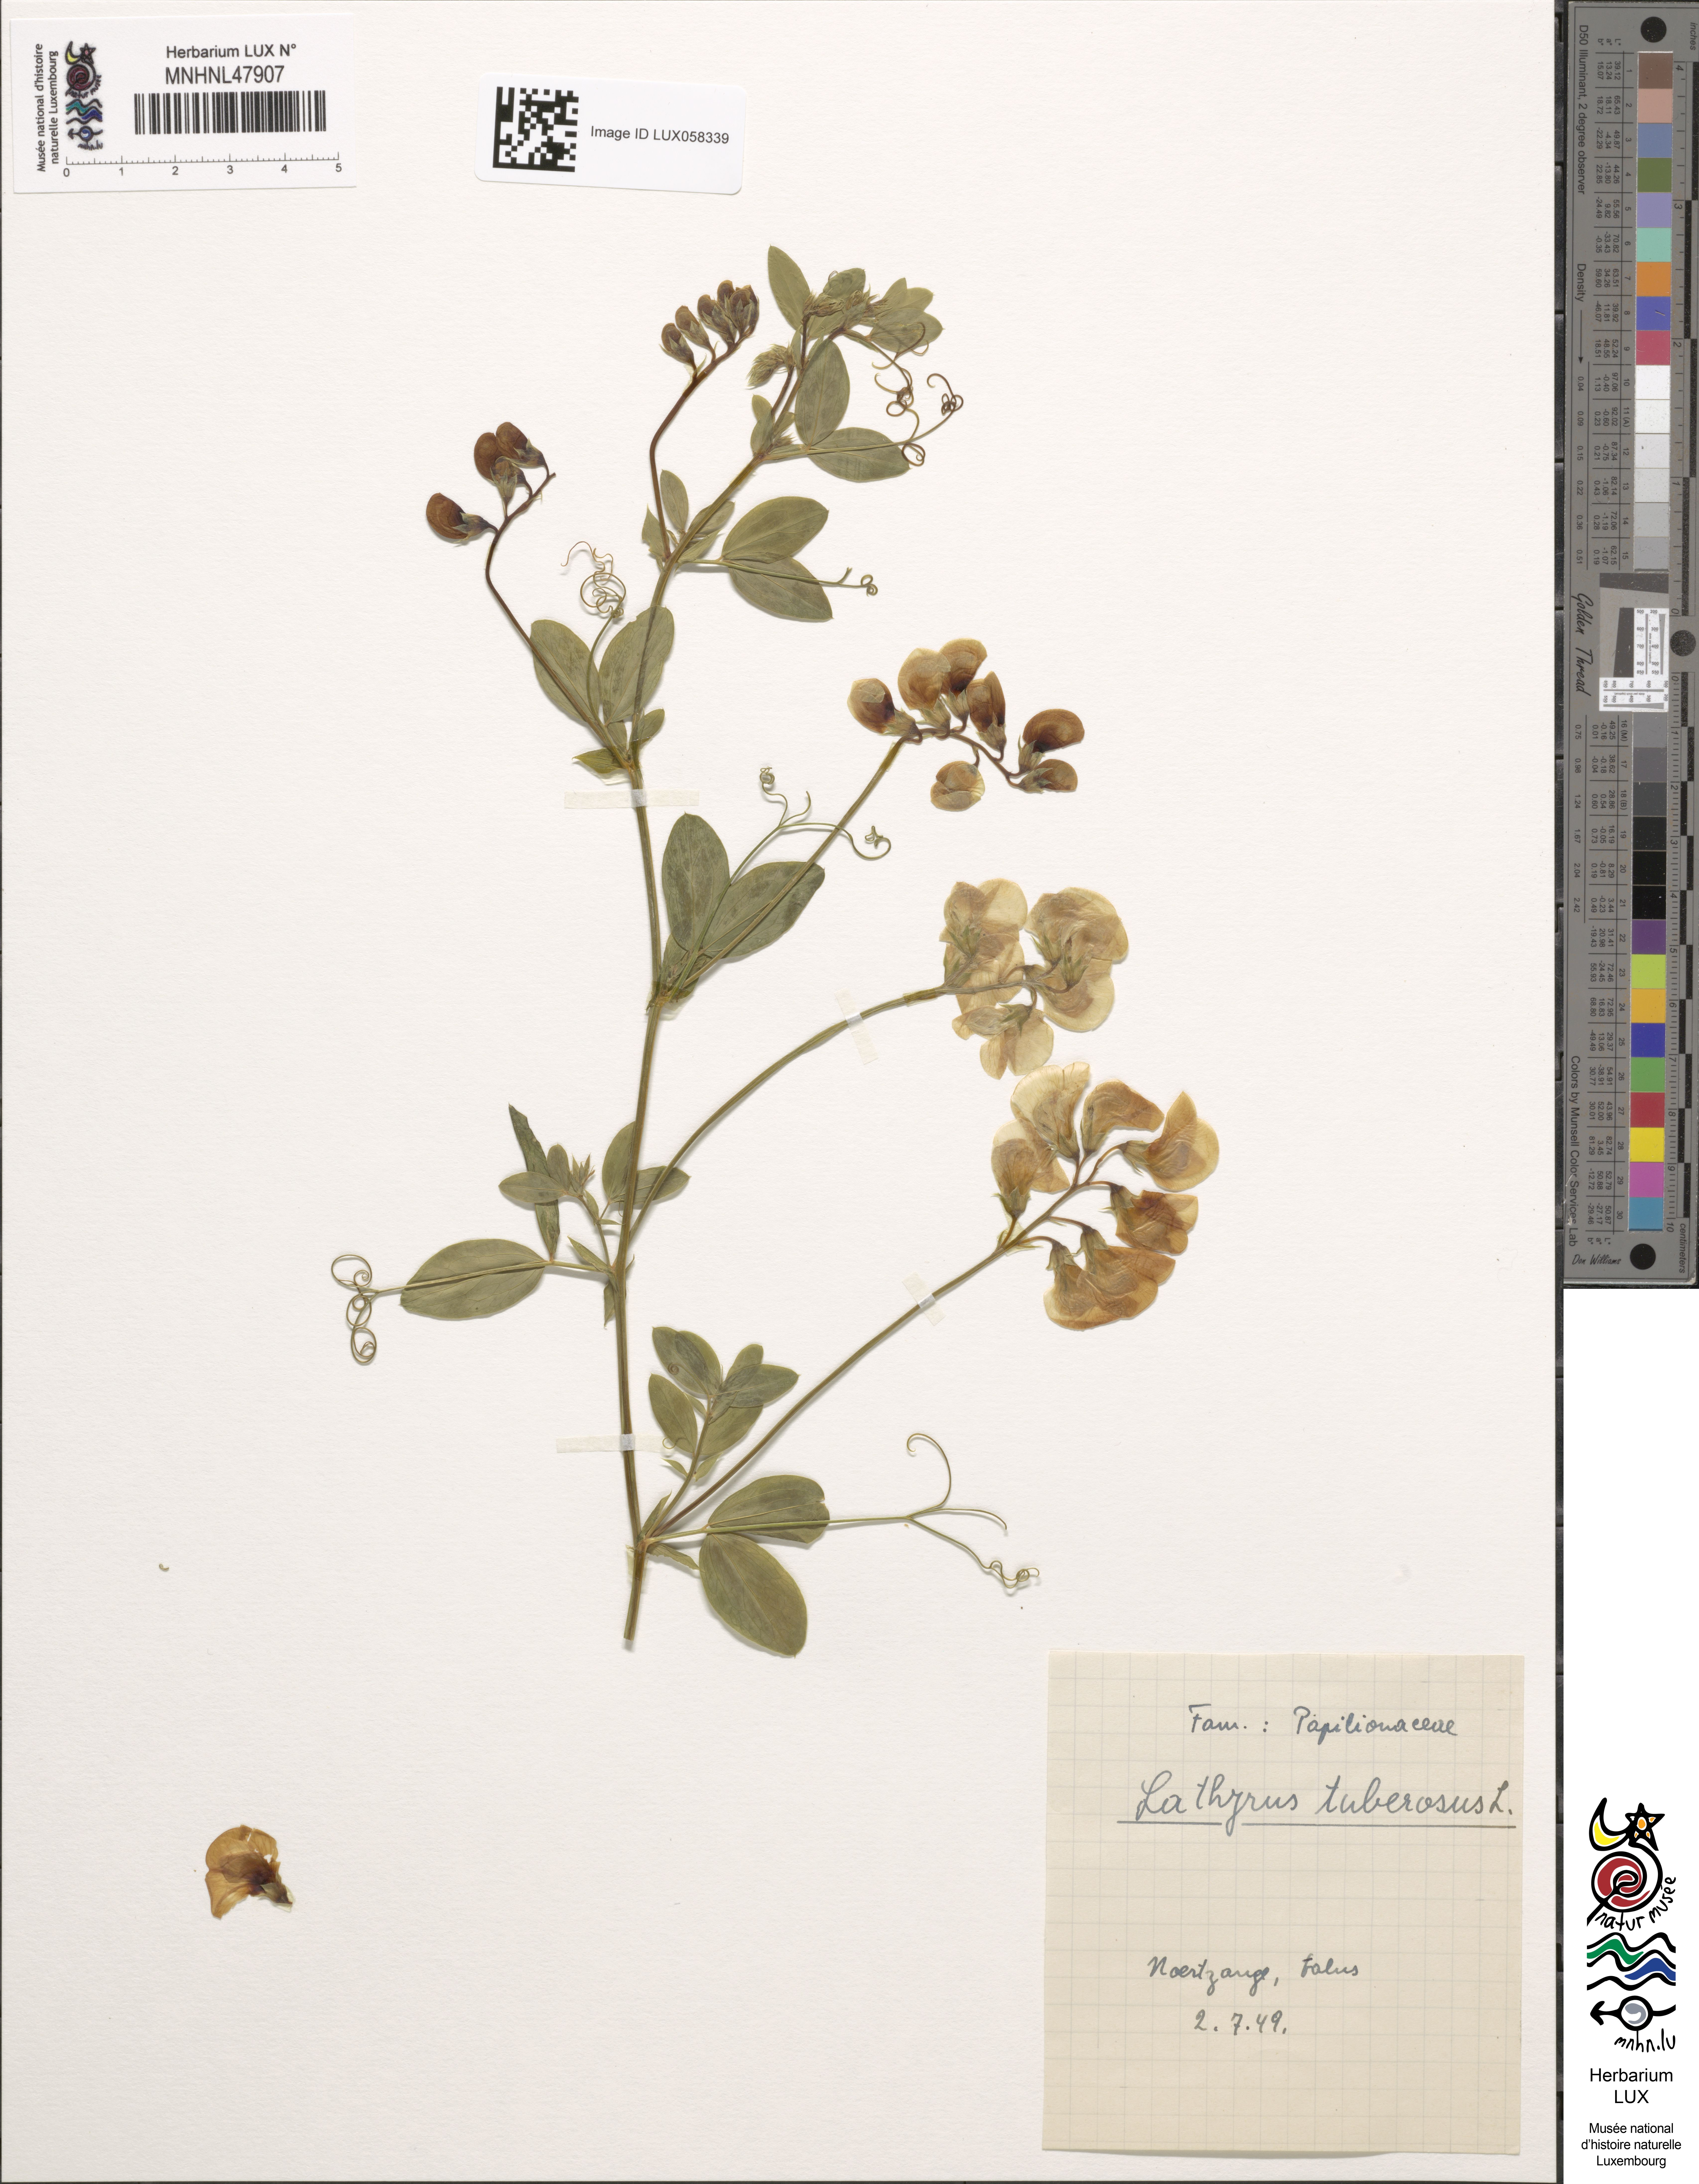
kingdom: Plantae
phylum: Tracheophyta
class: Magnoliopsida
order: Fabales
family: Fabaceae
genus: Lathyrus
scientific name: Lathyrus tuberosus
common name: Tuberous pea
